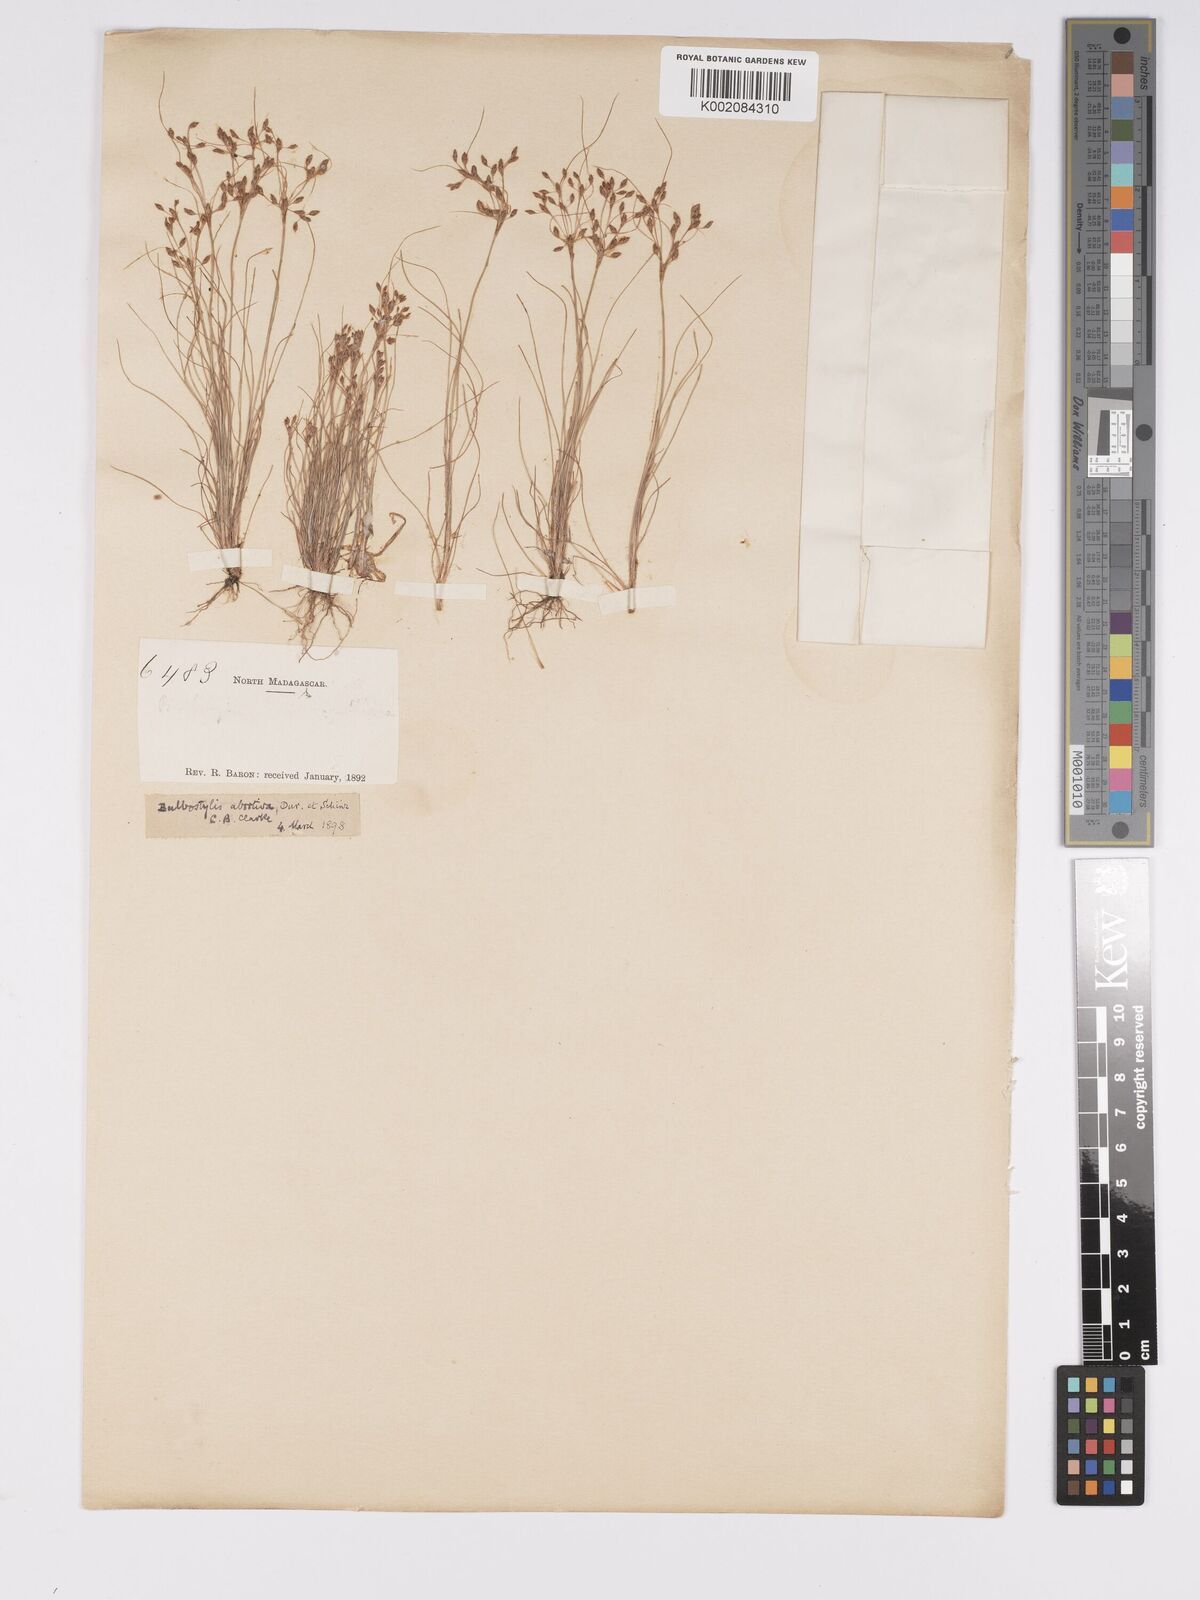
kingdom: Plantae
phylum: Tracheophyta
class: Liliopsida
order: Poales
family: Cyperaceae
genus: Bulbostylis
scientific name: Bulbostylis abortiva
